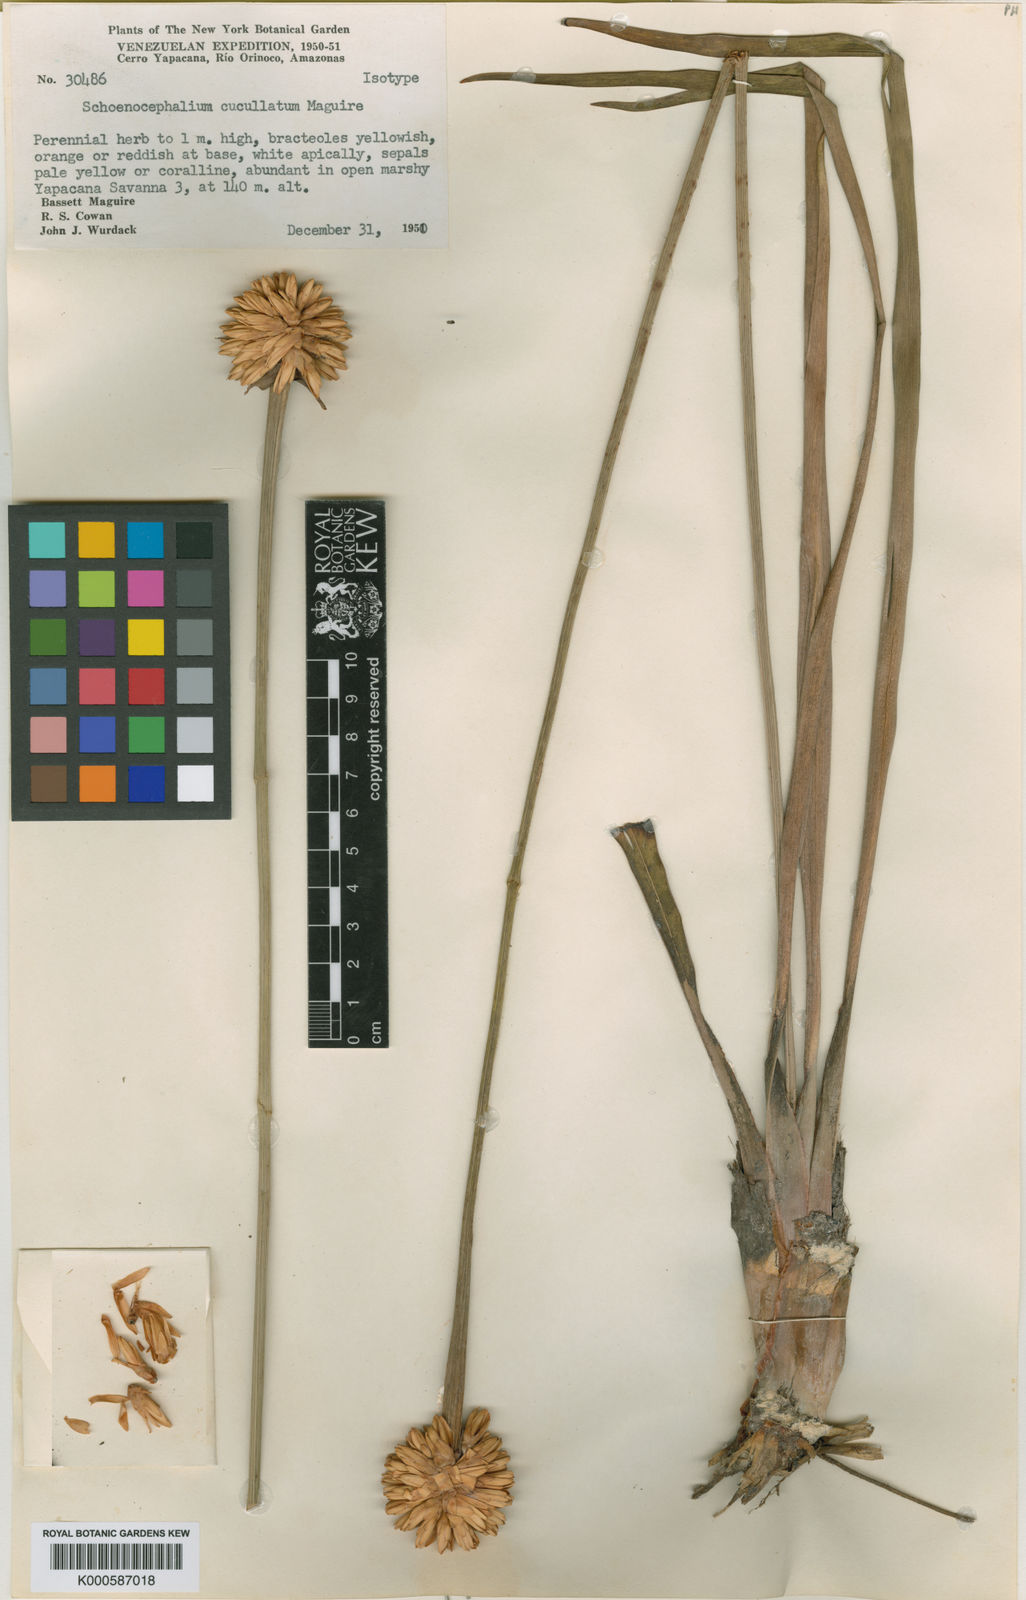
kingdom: Plantae
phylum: Tracheophyta
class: Liliopsida
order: Poales
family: Rapateaceae
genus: Schoenocephalium
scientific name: Schoenocephalium cucullatum
